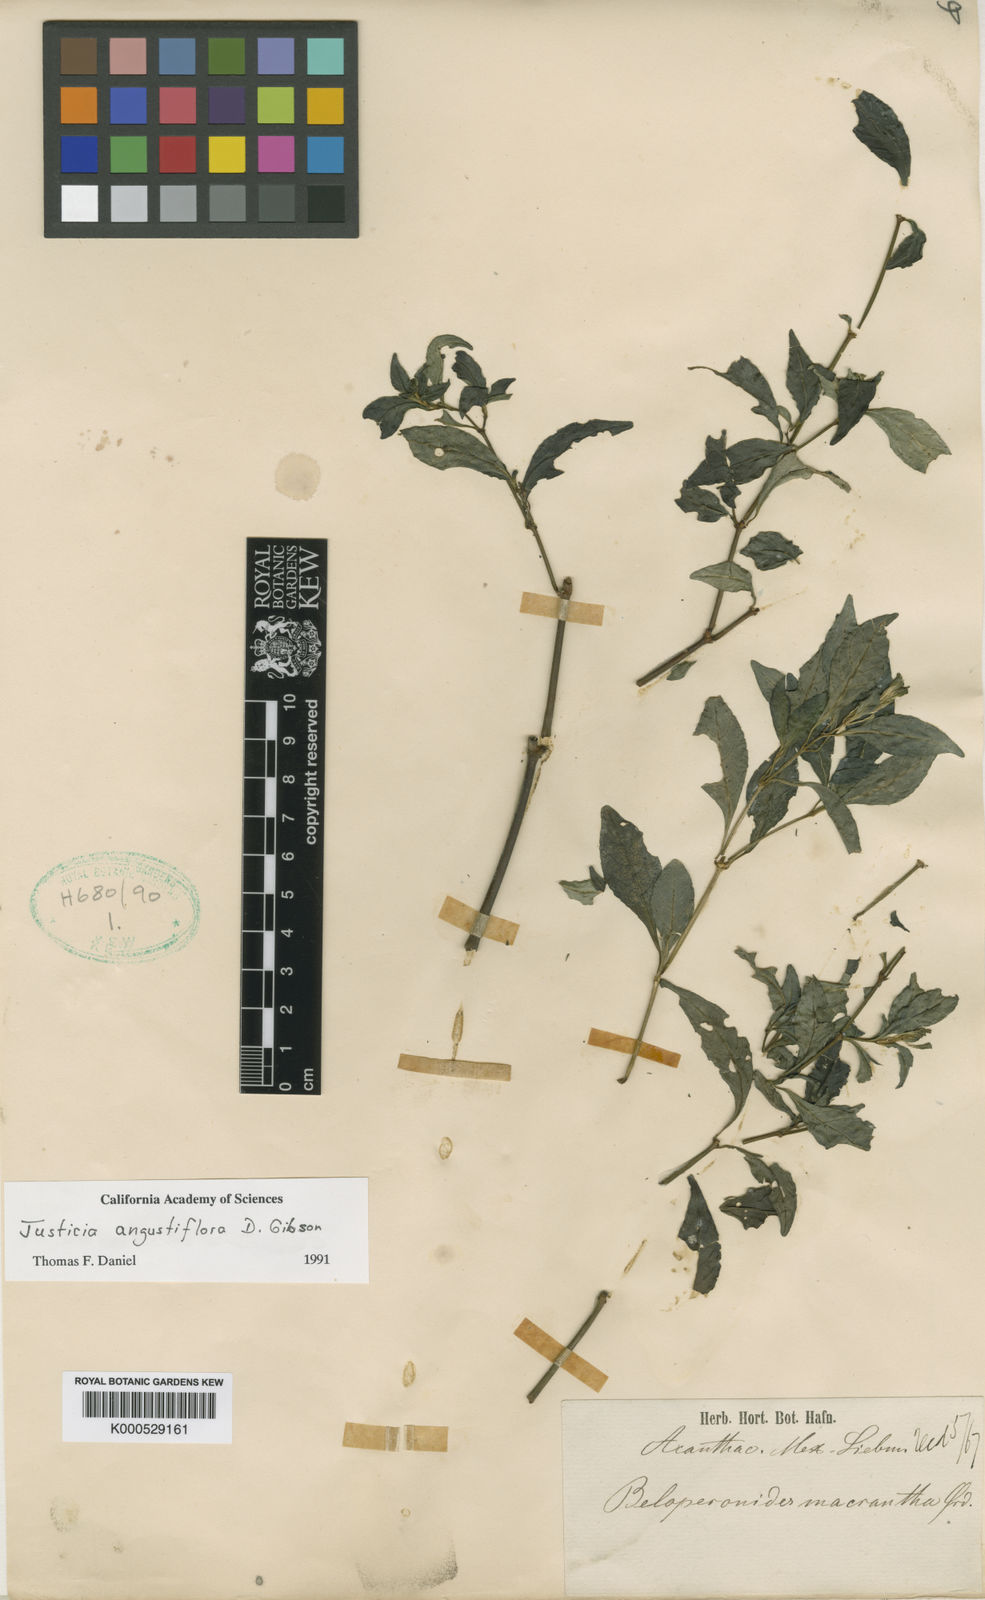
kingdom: Plantae
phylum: Tracheophyta
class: Magnoliopsida
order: Lamiales
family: Acanthaceae
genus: Justicia
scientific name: Justicia angustiflora
